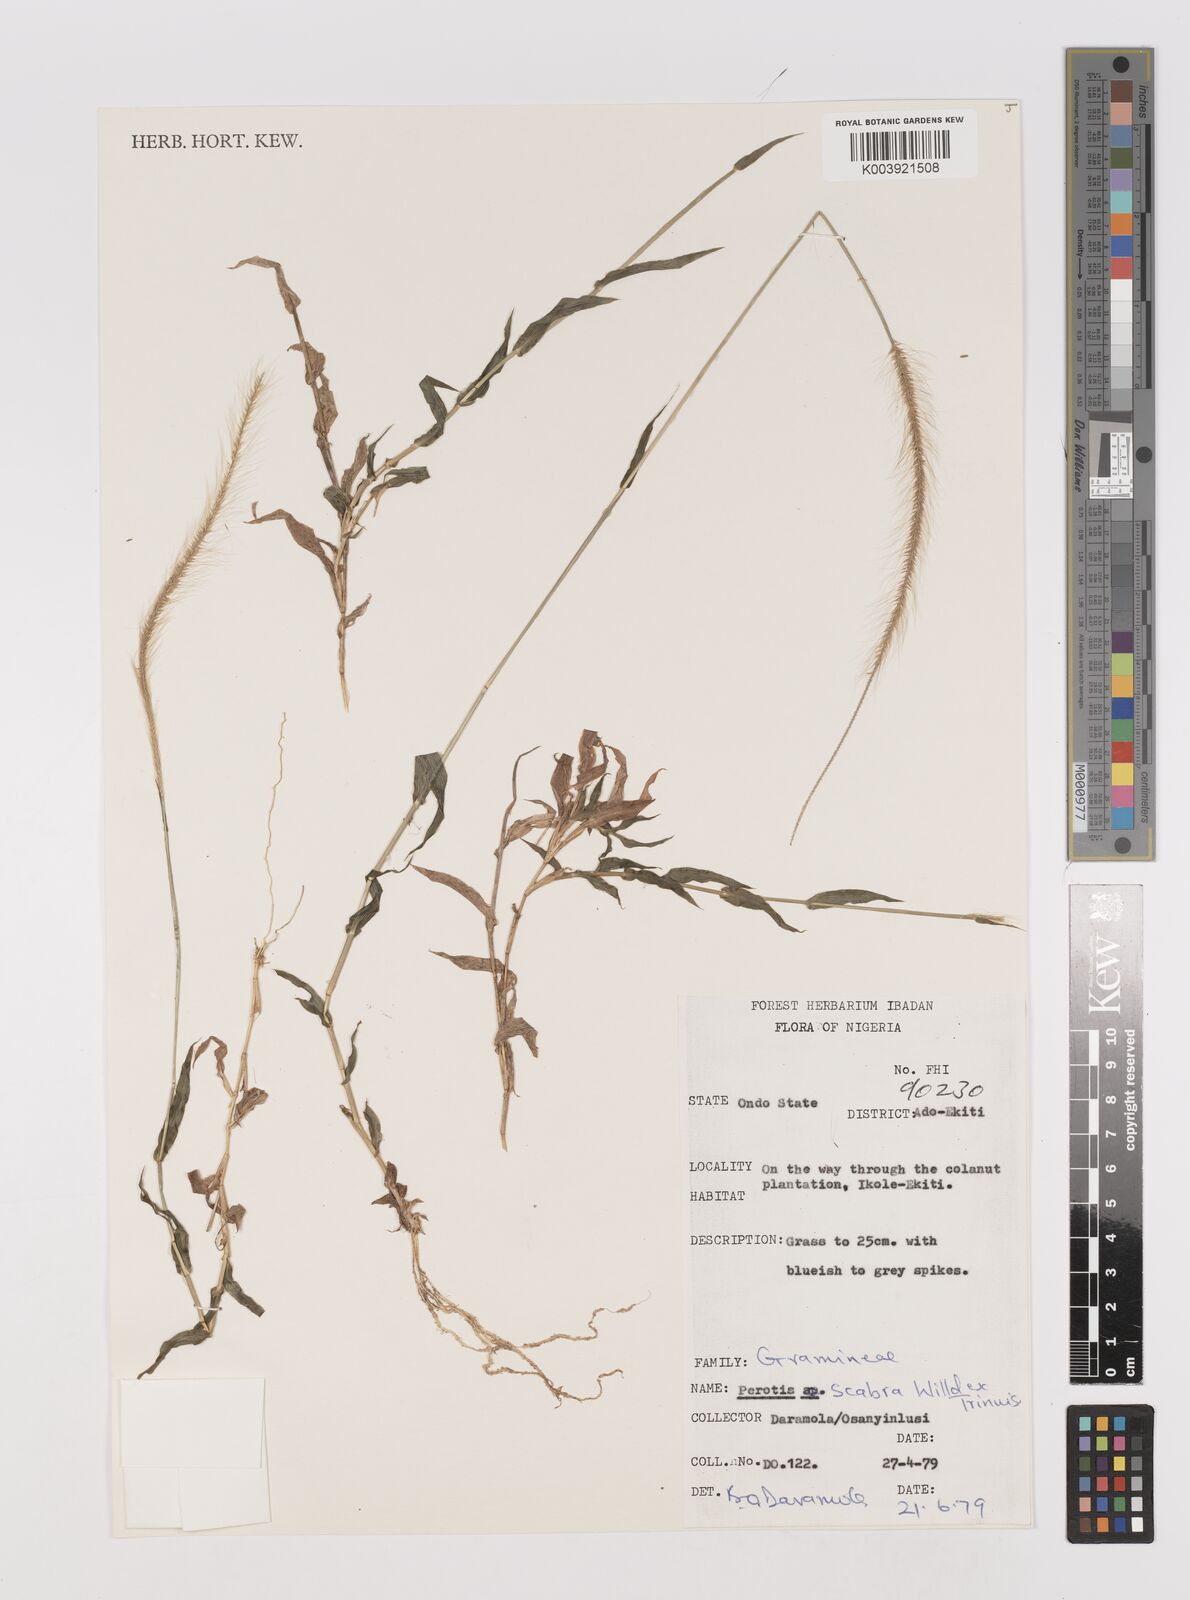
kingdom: Plantae
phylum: Tracheophyta
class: Liliopsida
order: Poales
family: Poaceae
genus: Perotis
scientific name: Perotis indica
